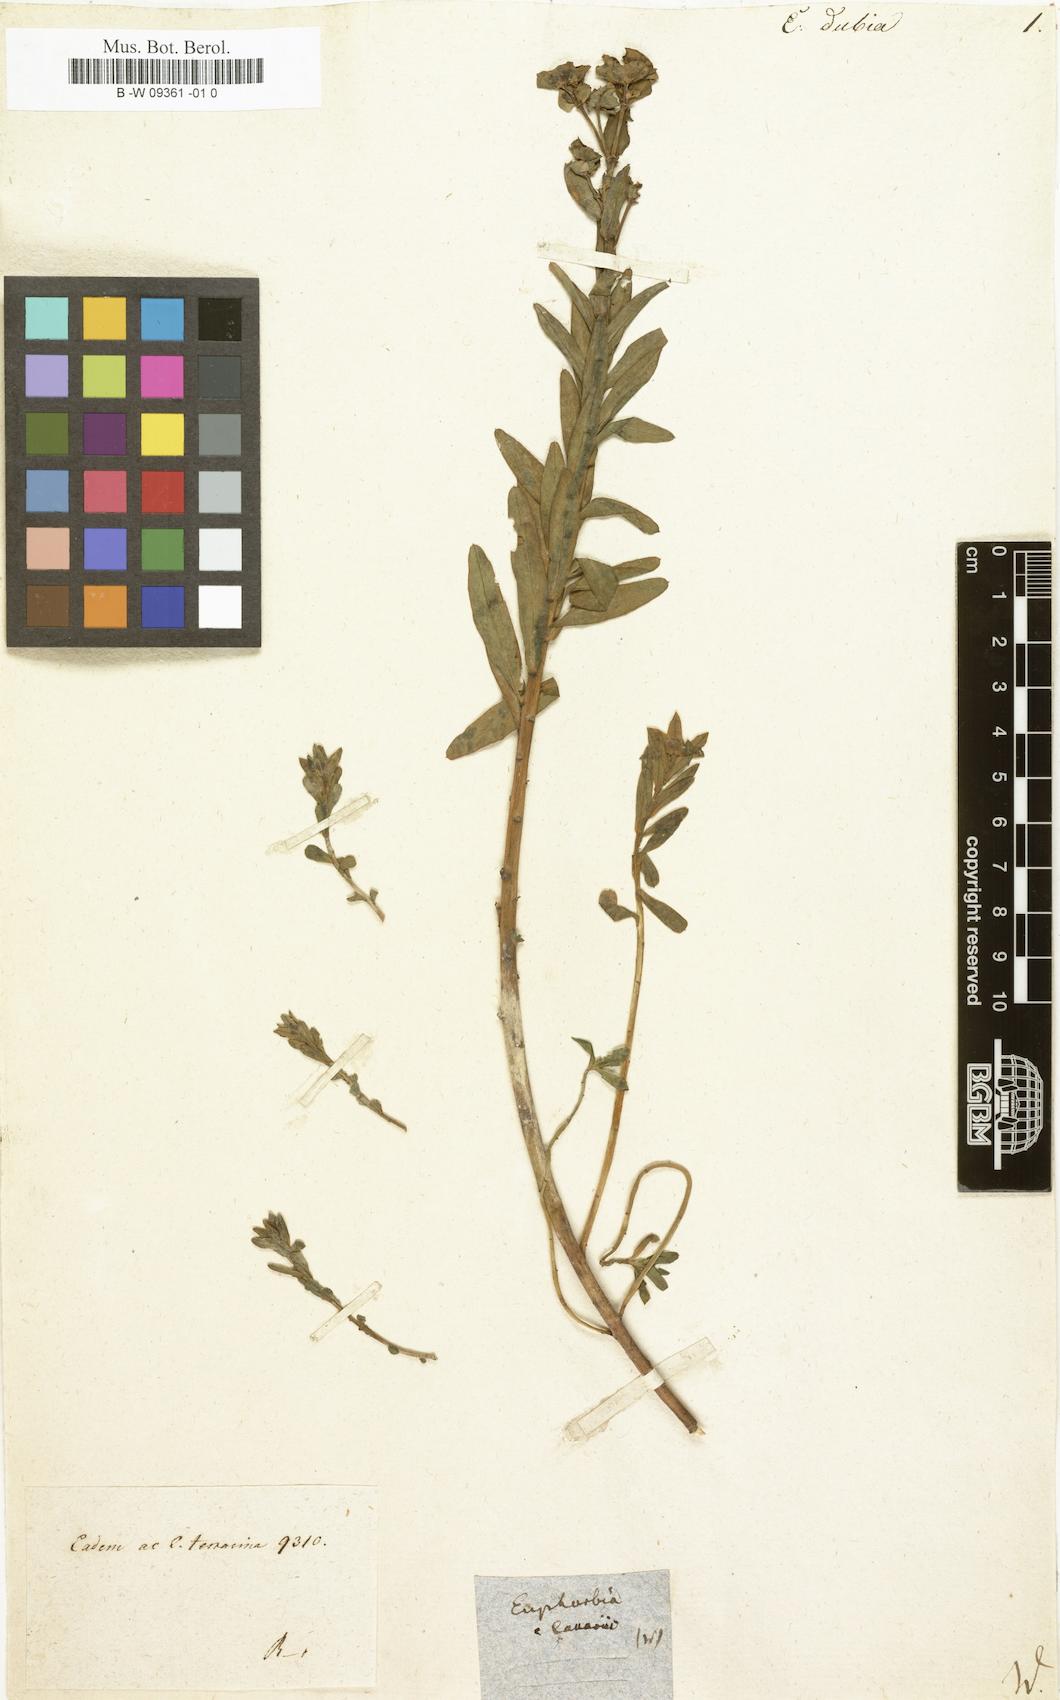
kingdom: Plantae
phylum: Tracheophyta
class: Magnoliopsida
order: Malpighiales
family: Euphorbiaceae
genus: Euphorbia
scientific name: Euphorbia platyphyllos
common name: Broad-leaved spurge
